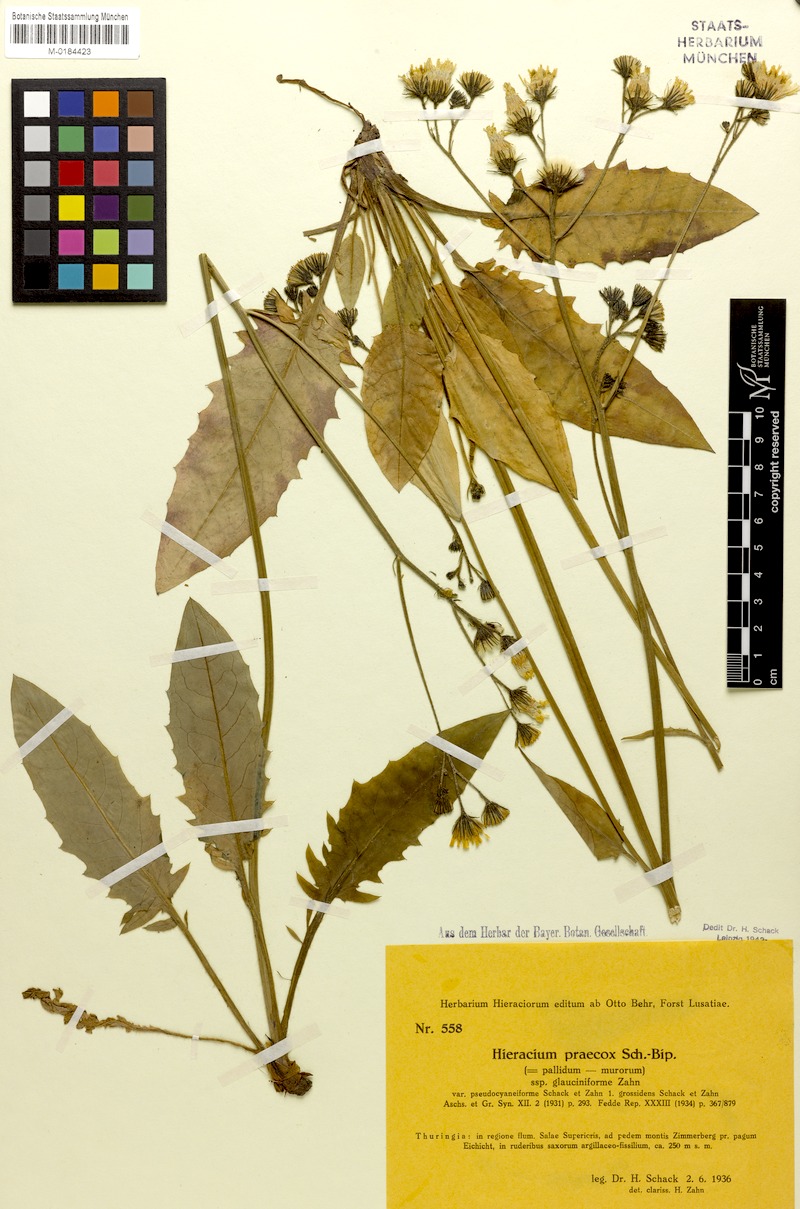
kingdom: Plantae
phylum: Tracheophyta
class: Magnoliopsida
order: Asterales
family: Asteraceae
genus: Hieracium
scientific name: Hieracium glaucinum
